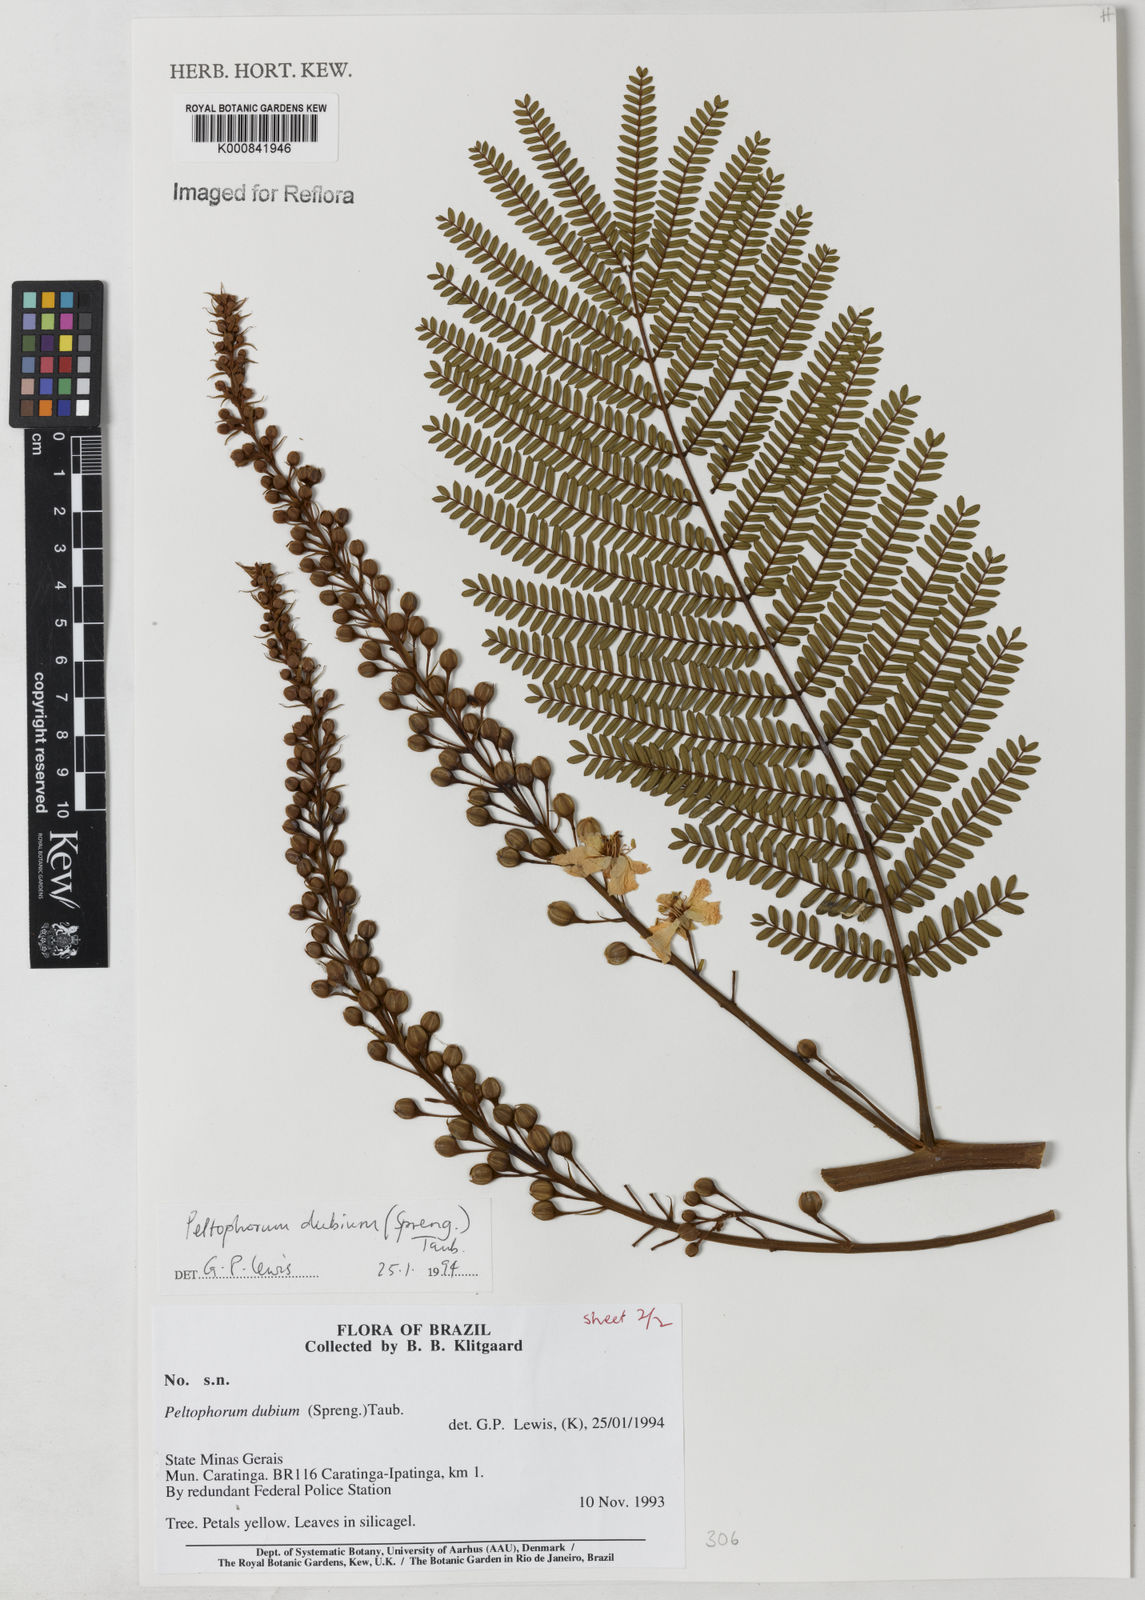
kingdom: Plantae
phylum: Tracheophyta
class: Magnoliopsida
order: Fabales
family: Fabaceae
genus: Peltophorum
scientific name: Peltophorum dubium
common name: Horsebush
